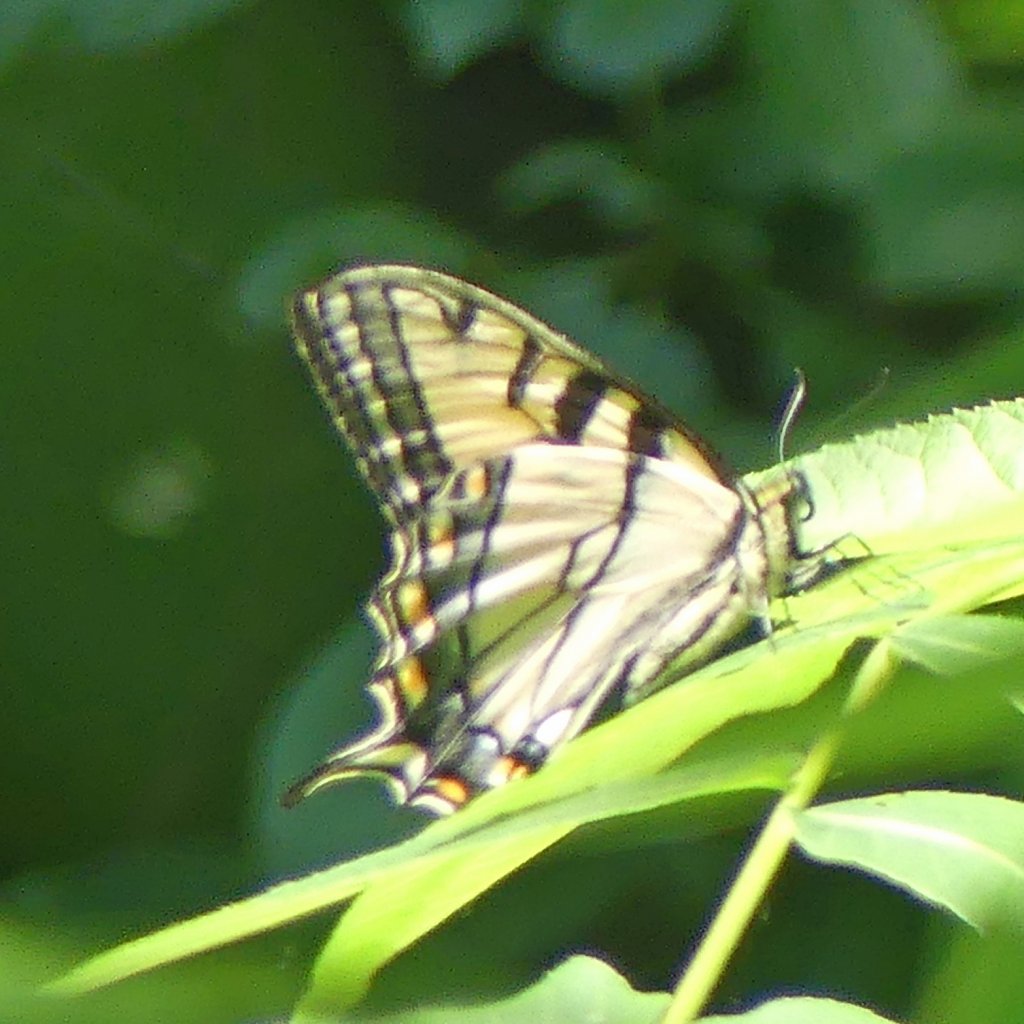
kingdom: Animalia
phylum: Arthropoda
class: Insecta
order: Lepidoptera
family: Papilionidae
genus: Pterourus
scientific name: Pterourus glaucus
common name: Eastern Tiger Swallowtail
